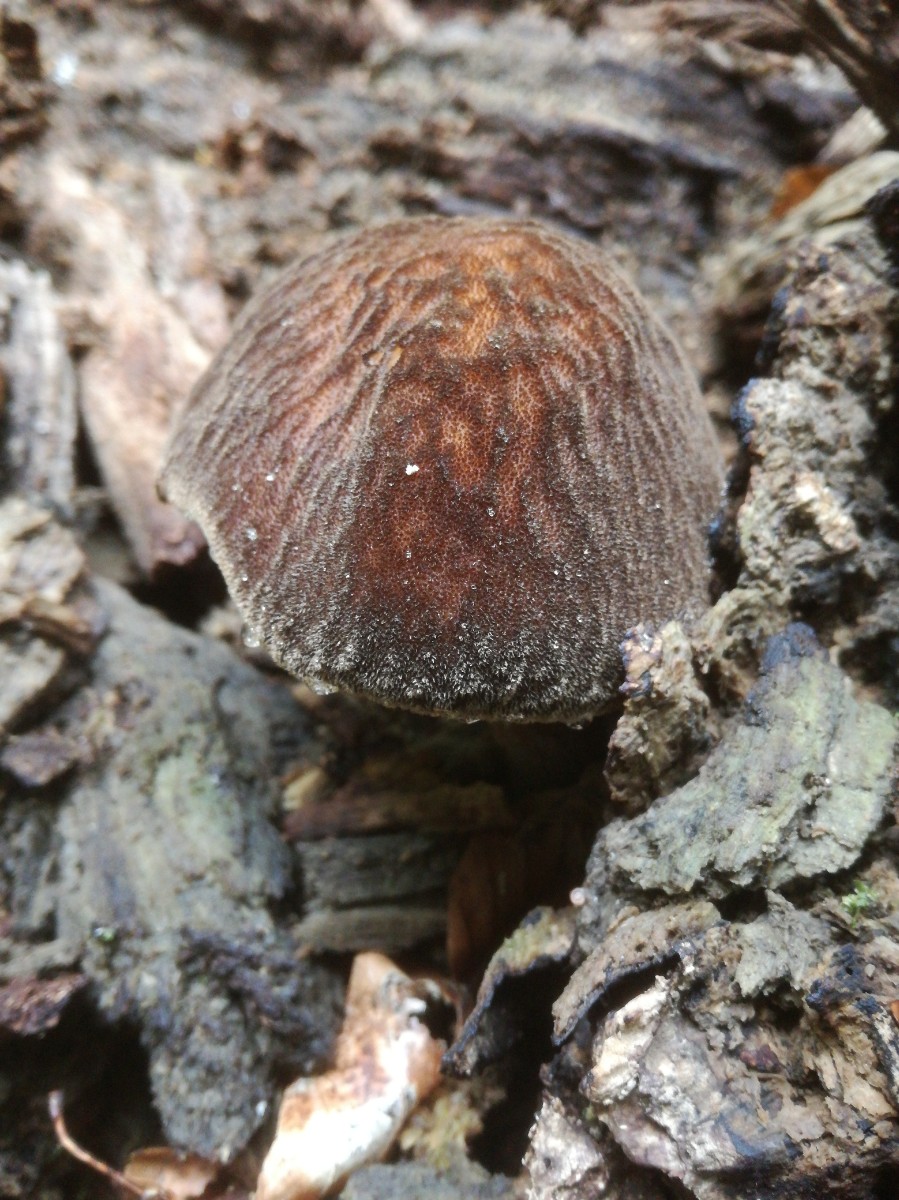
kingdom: Fungi
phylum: Basidiomycota
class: Agaricomycetes
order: Agaricales
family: Pluteaceae
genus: Pluteus
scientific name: Pluteus umbrosus
